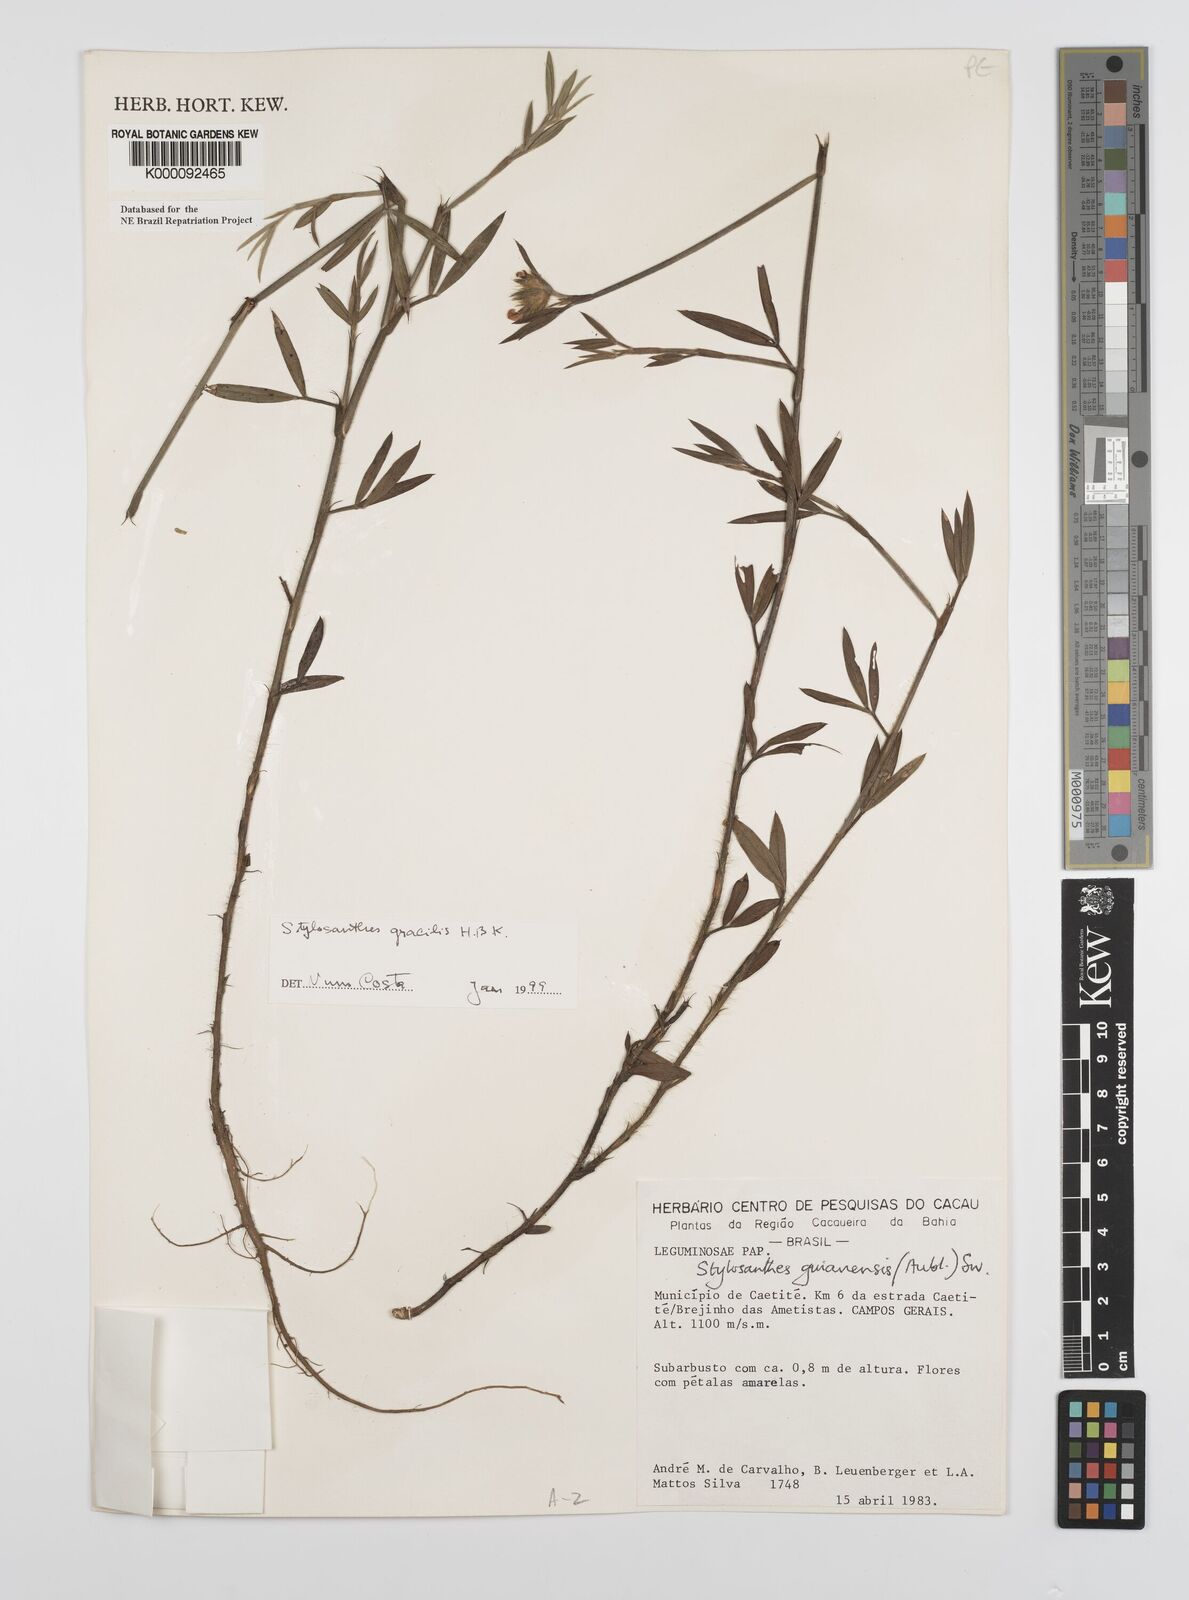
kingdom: Plantae
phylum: Tracheophyta
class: Magnoliopsida
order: Fabales
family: Fabaceae
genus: Stylosanthes
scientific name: Stylosanthes guianensis
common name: Pencil flower
